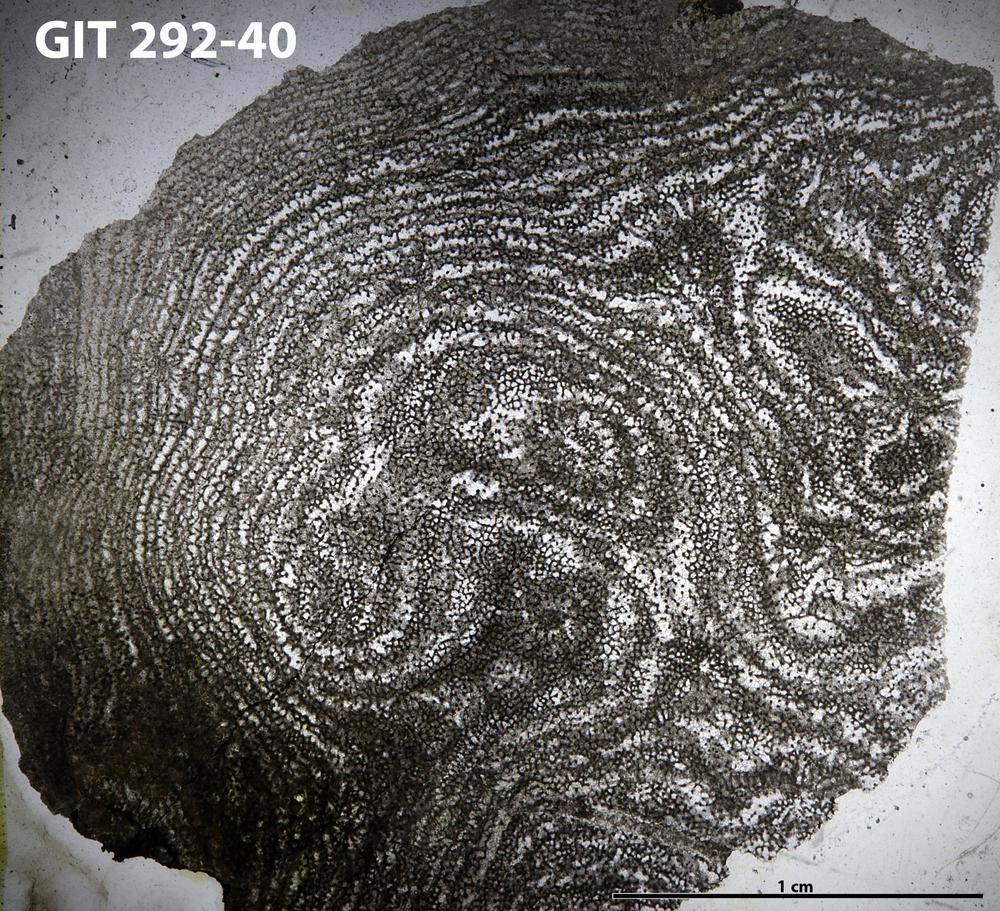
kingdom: Animalia
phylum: Porifera
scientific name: Porifera
